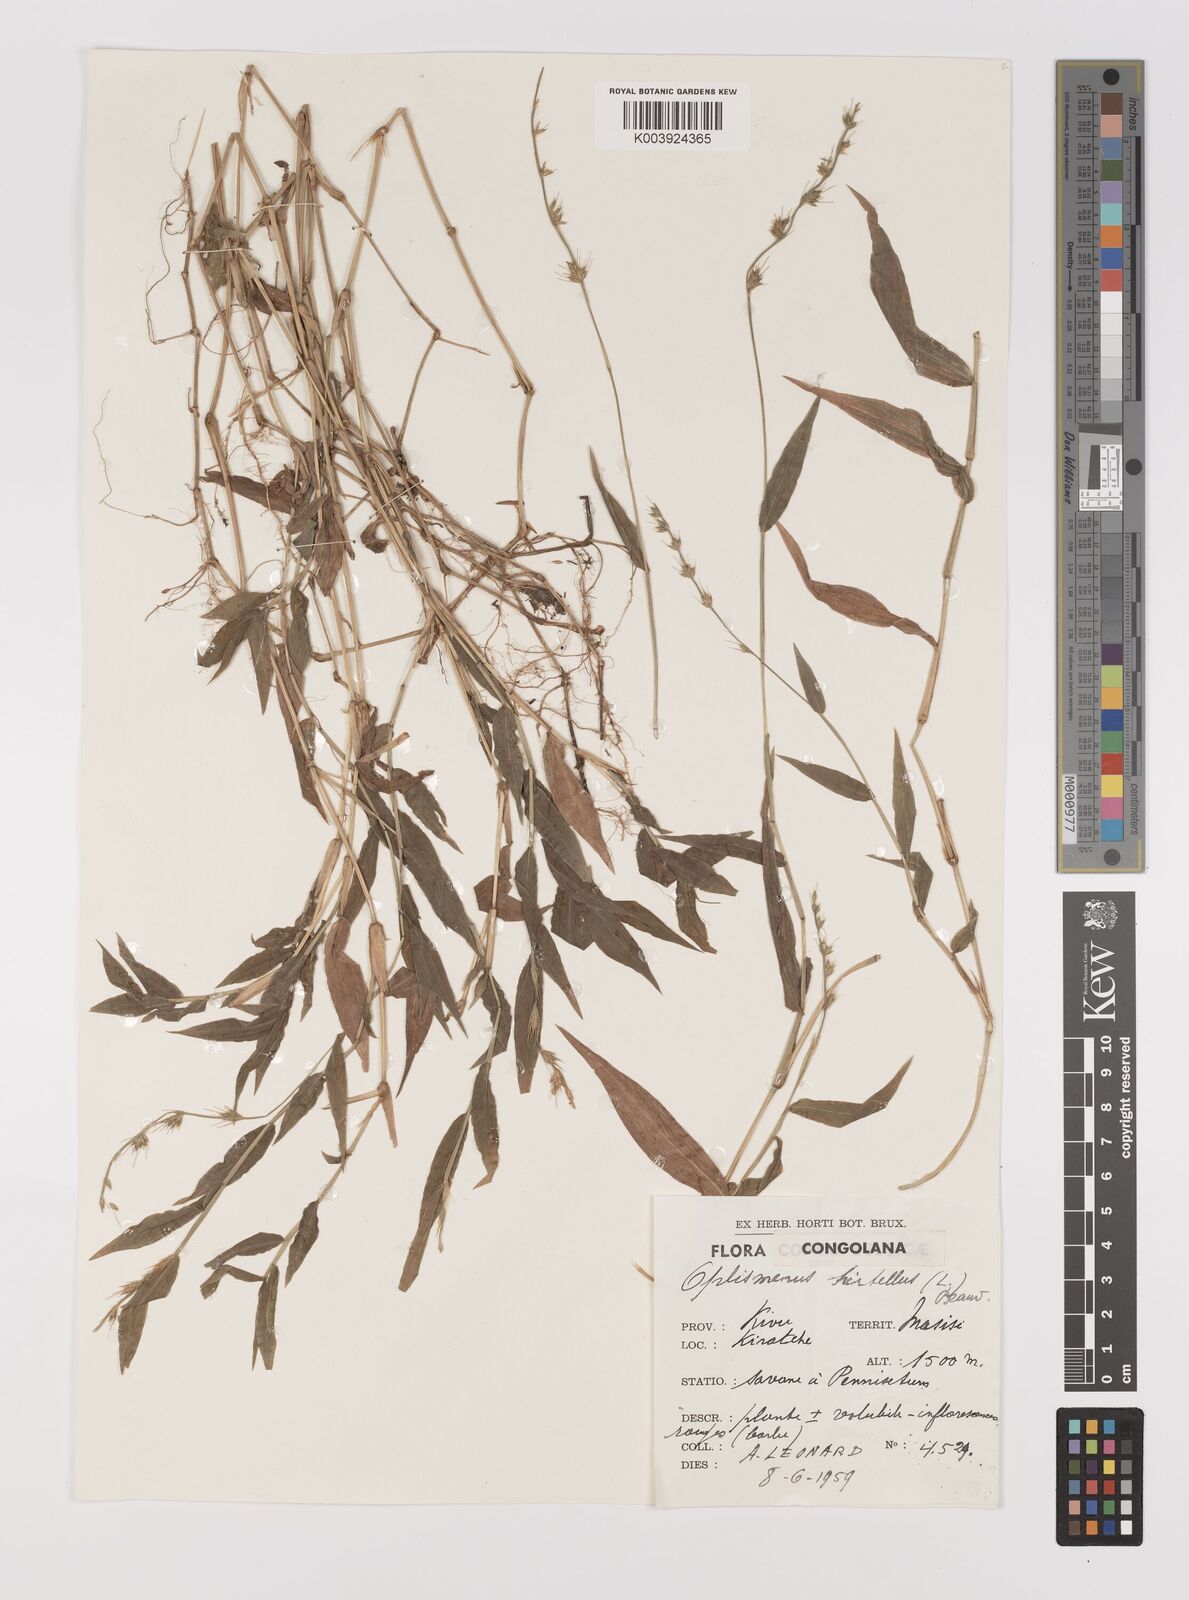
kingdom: Plantae
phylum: Tracheophyta
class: Liliopsida
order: Poales
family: Poaceae
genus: Oplismenus
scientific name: Oplismenus hirtellus
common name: Basketgrass
